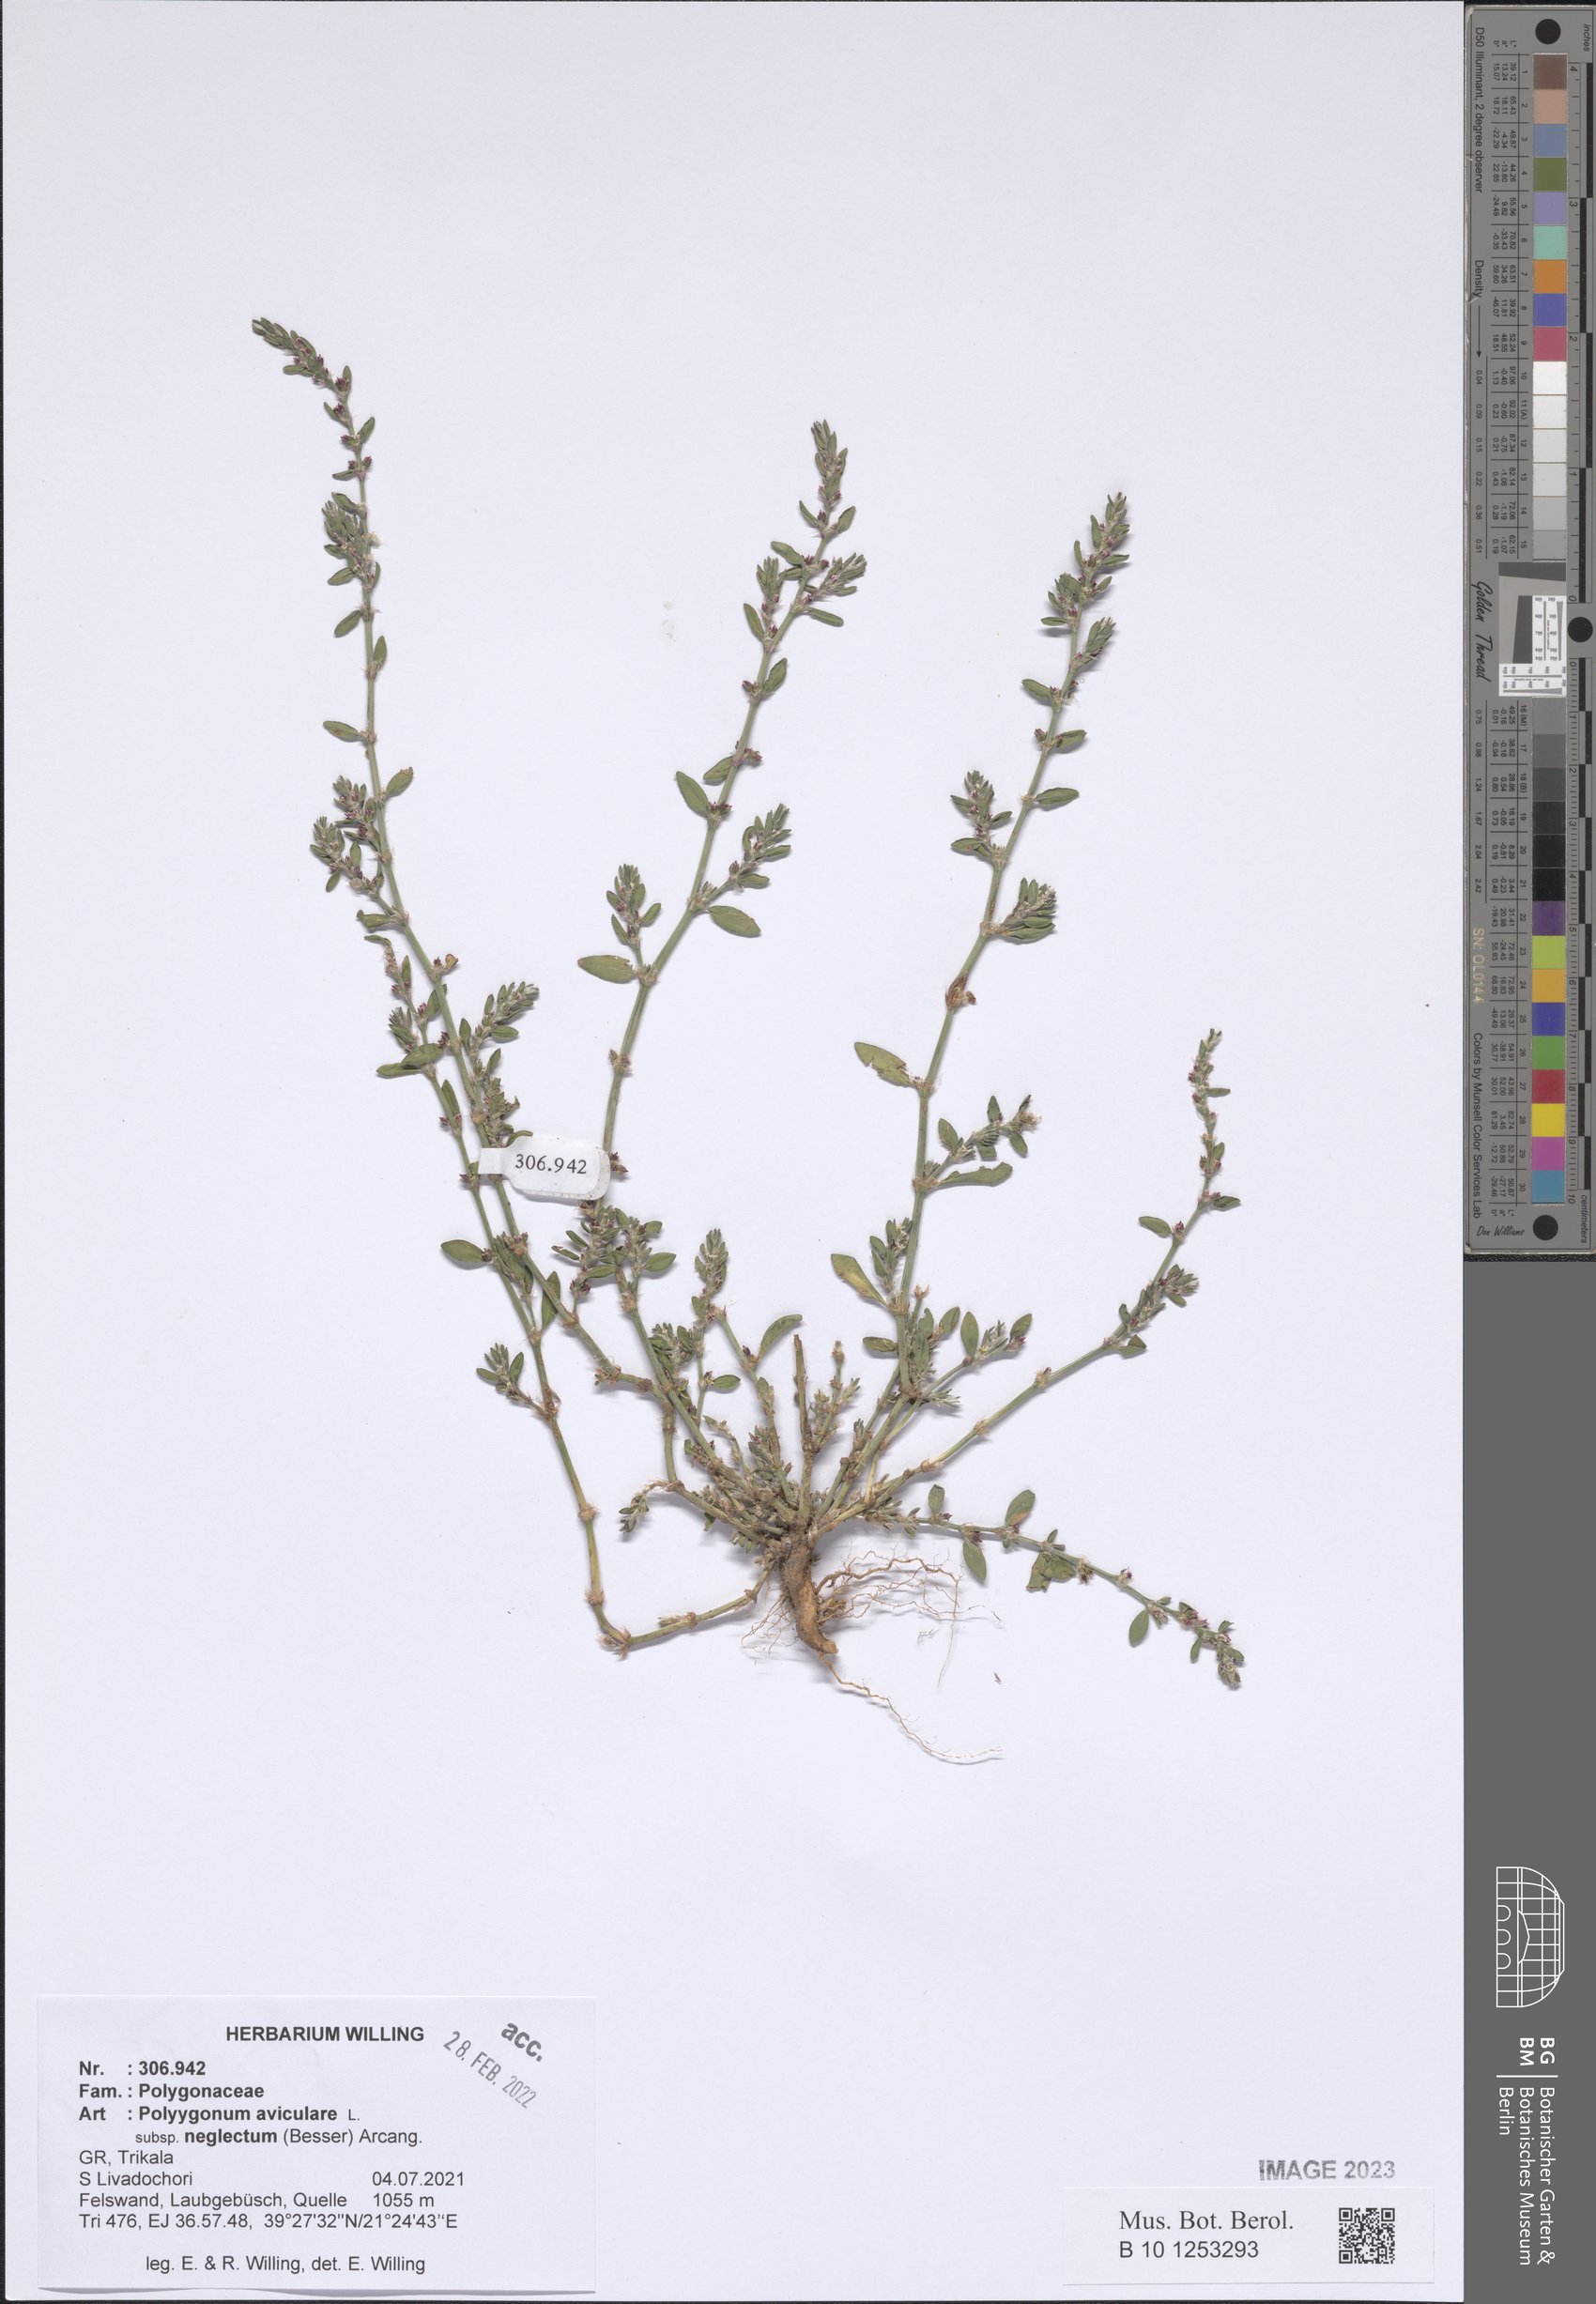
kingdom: Plantae
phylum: Tracheophyta
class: Magnoliopsida
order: Caryophyllales
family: Polygonaceae
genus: Polygonum
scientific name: Polygonum aviculare
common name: Prostrate knotweed
